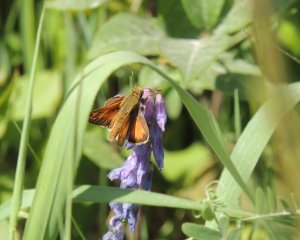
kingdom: Animalia
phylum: Arthropoda
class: Insecta
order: Lepidoptera
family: Hesperiidae
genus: Polites
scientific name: Polites themistocles
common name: Tawny-edged Skipper
